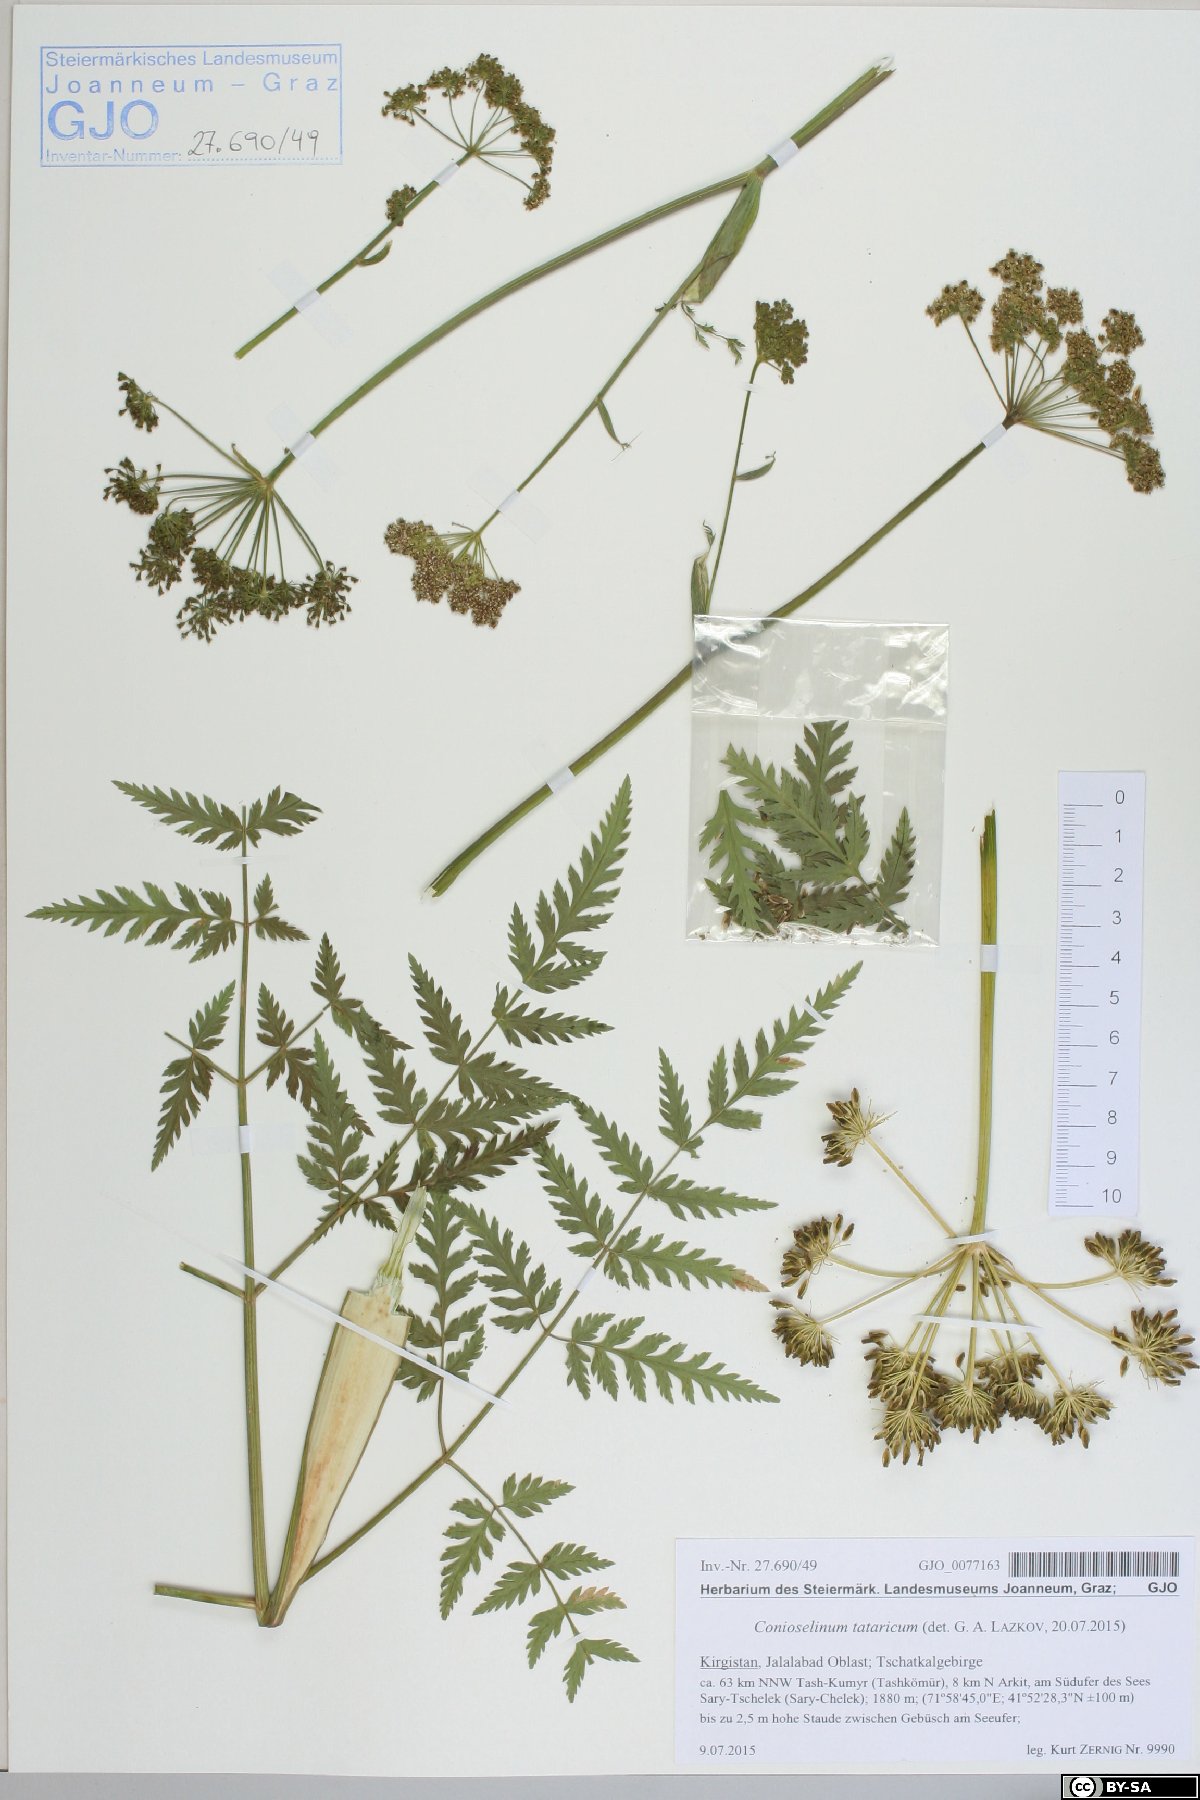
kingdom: Plantae
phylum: Tracheophyta
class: Magnoliopsida
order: Apiales
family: Apiaceae
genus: Conioselinum
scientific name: Conioselinum tataricum
